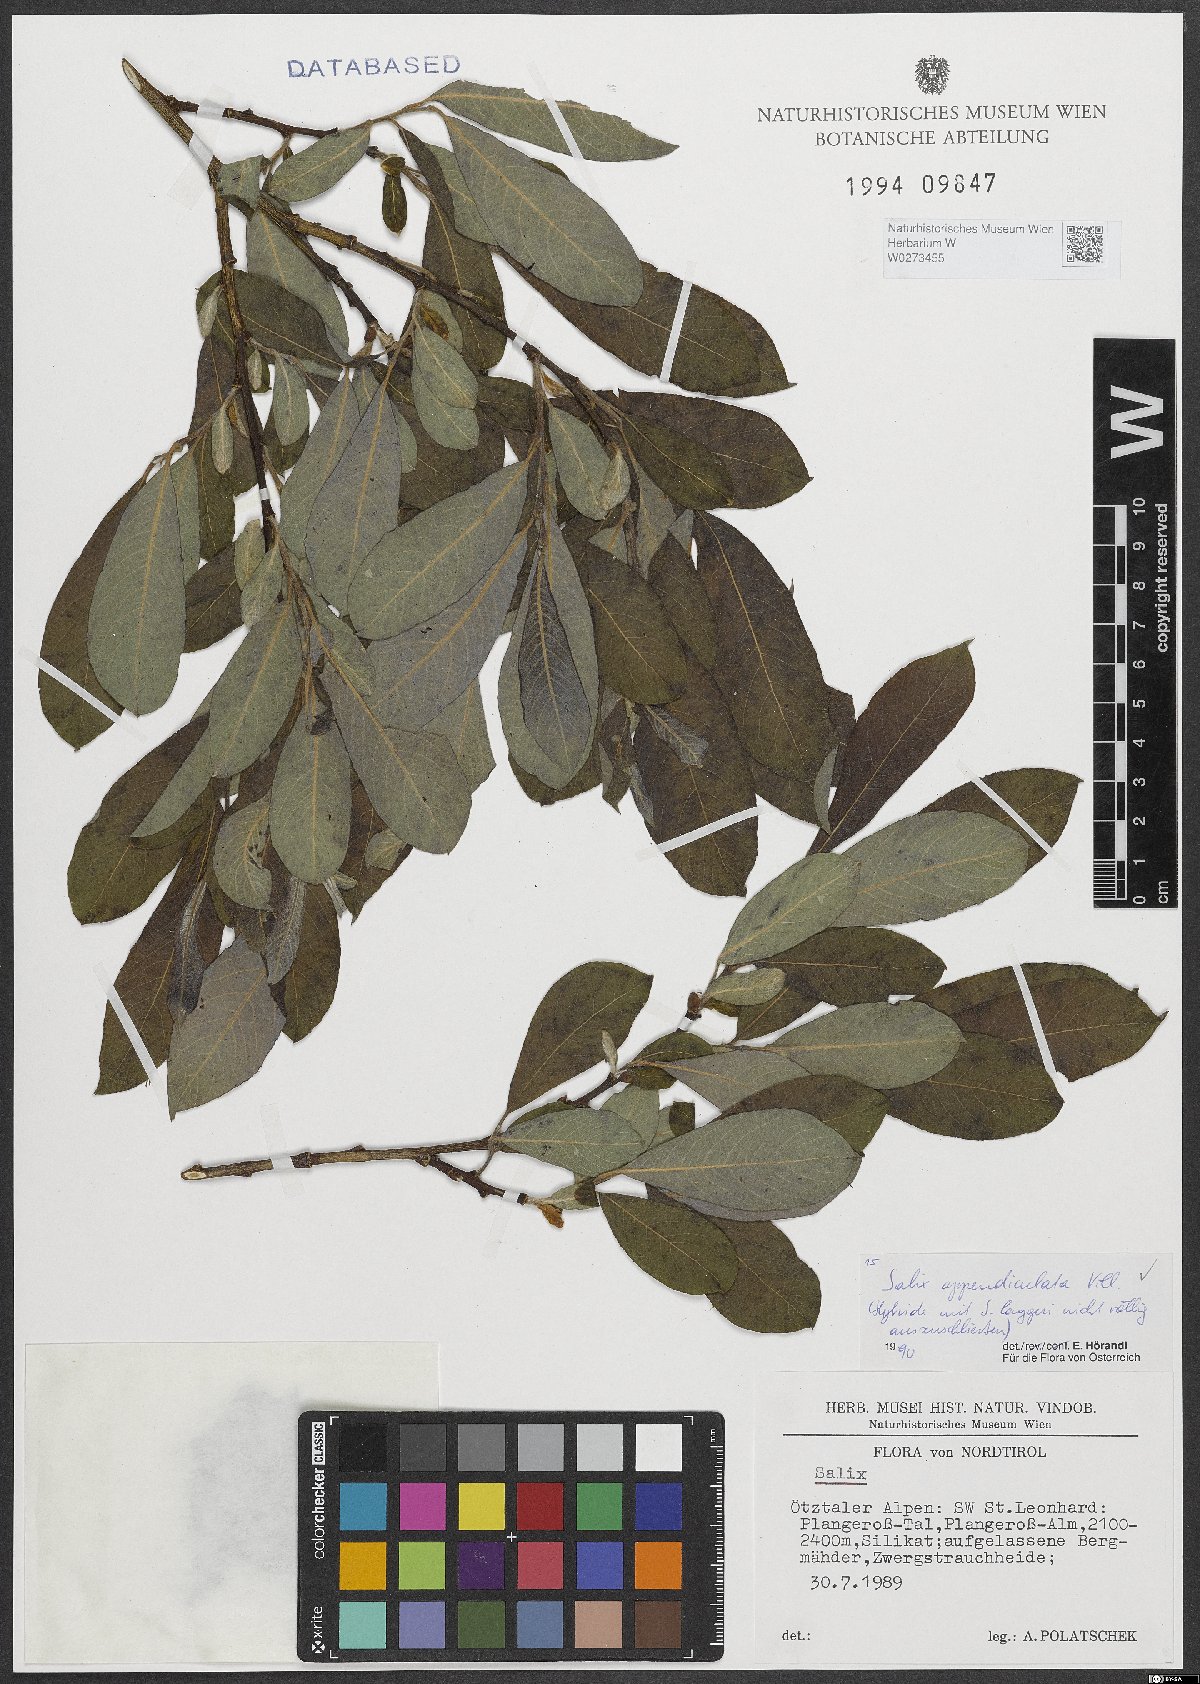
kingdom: Plantae
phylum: Tracheophyta
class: Magnoliopsida
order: Malpighiales
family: Salicaceae
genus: Salix
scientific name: Salix appendiculata
